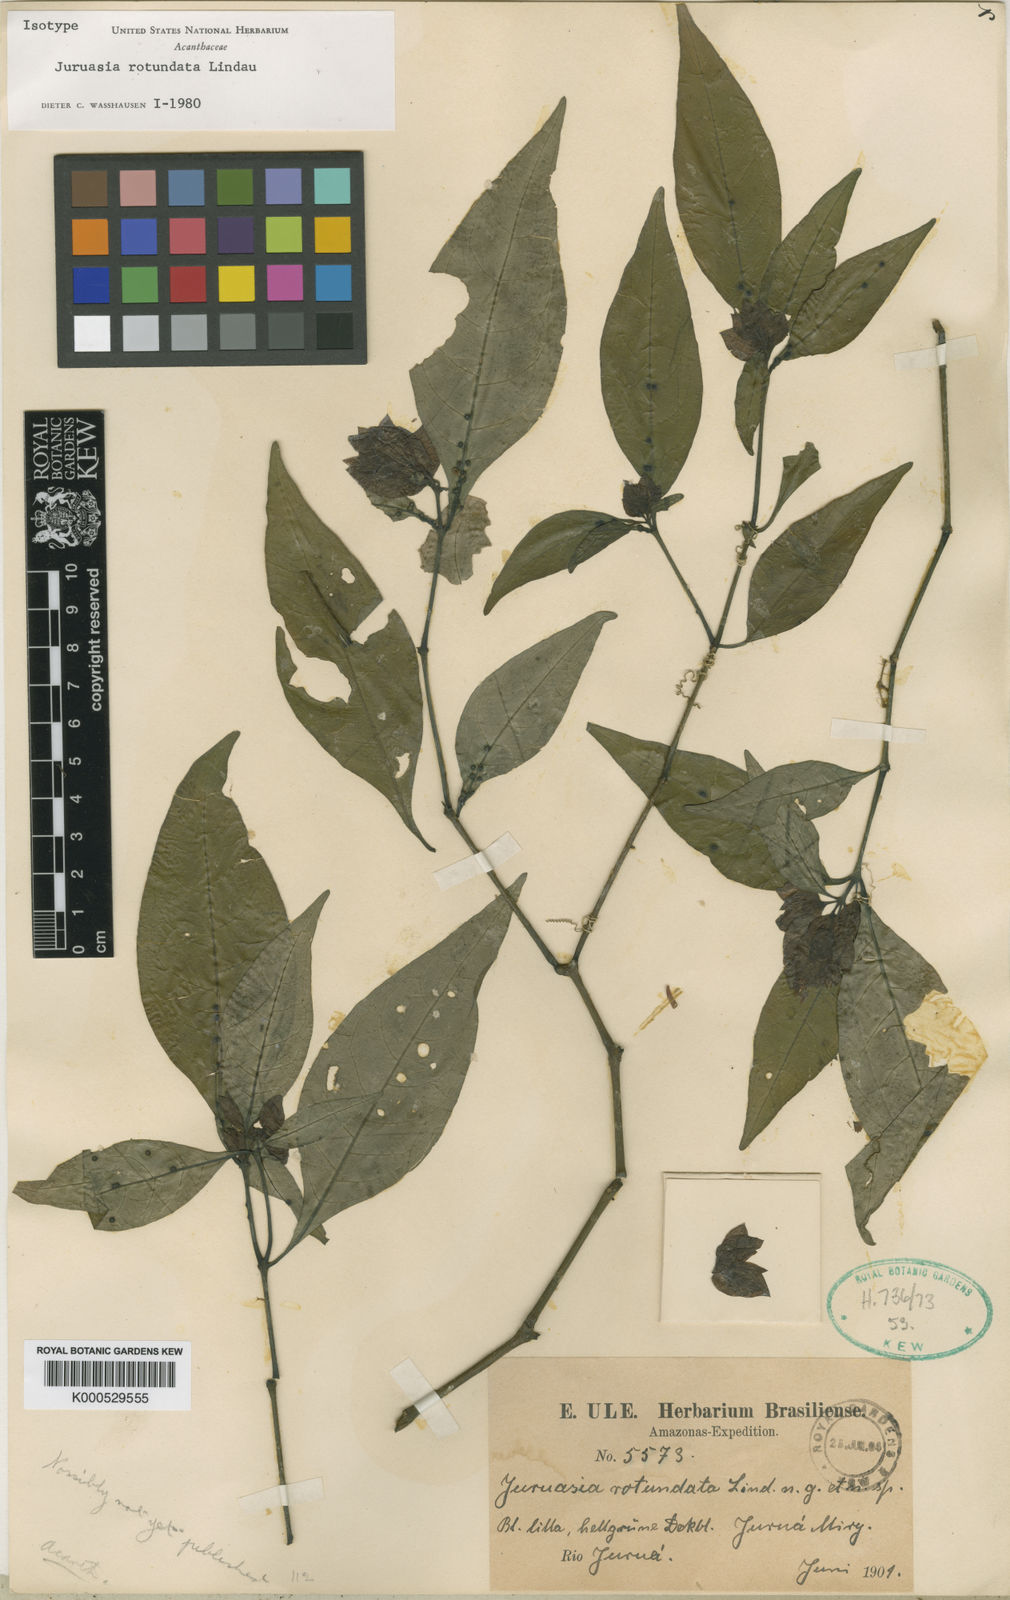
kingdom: Plantae
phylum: Tracheophyta
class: Magnoliopsida
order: Lamiales
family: Acanthaceae
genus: Herpetacanthus
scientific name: Herpetacanthus rotundatus
